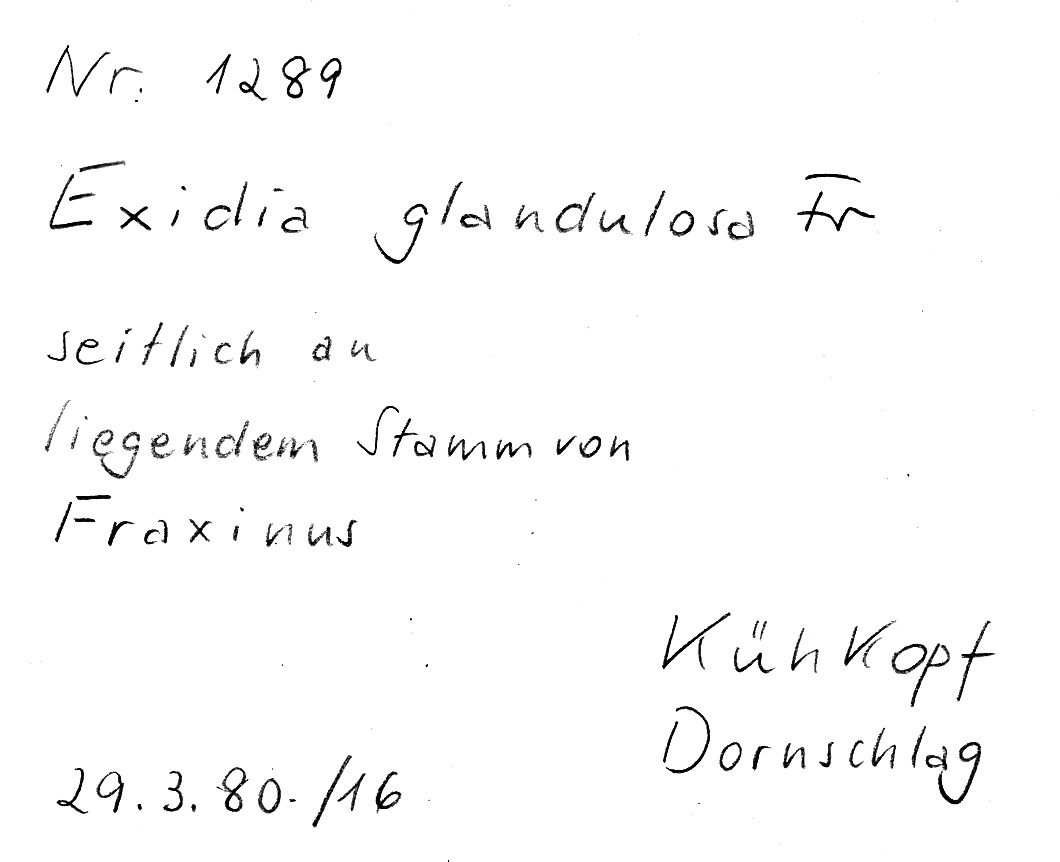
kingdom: Plantae
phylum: Tracheophyta
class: Magnoliopsida
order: Lamiales
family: Oleaceae
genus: Fraxinus
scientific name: Fraxinus
